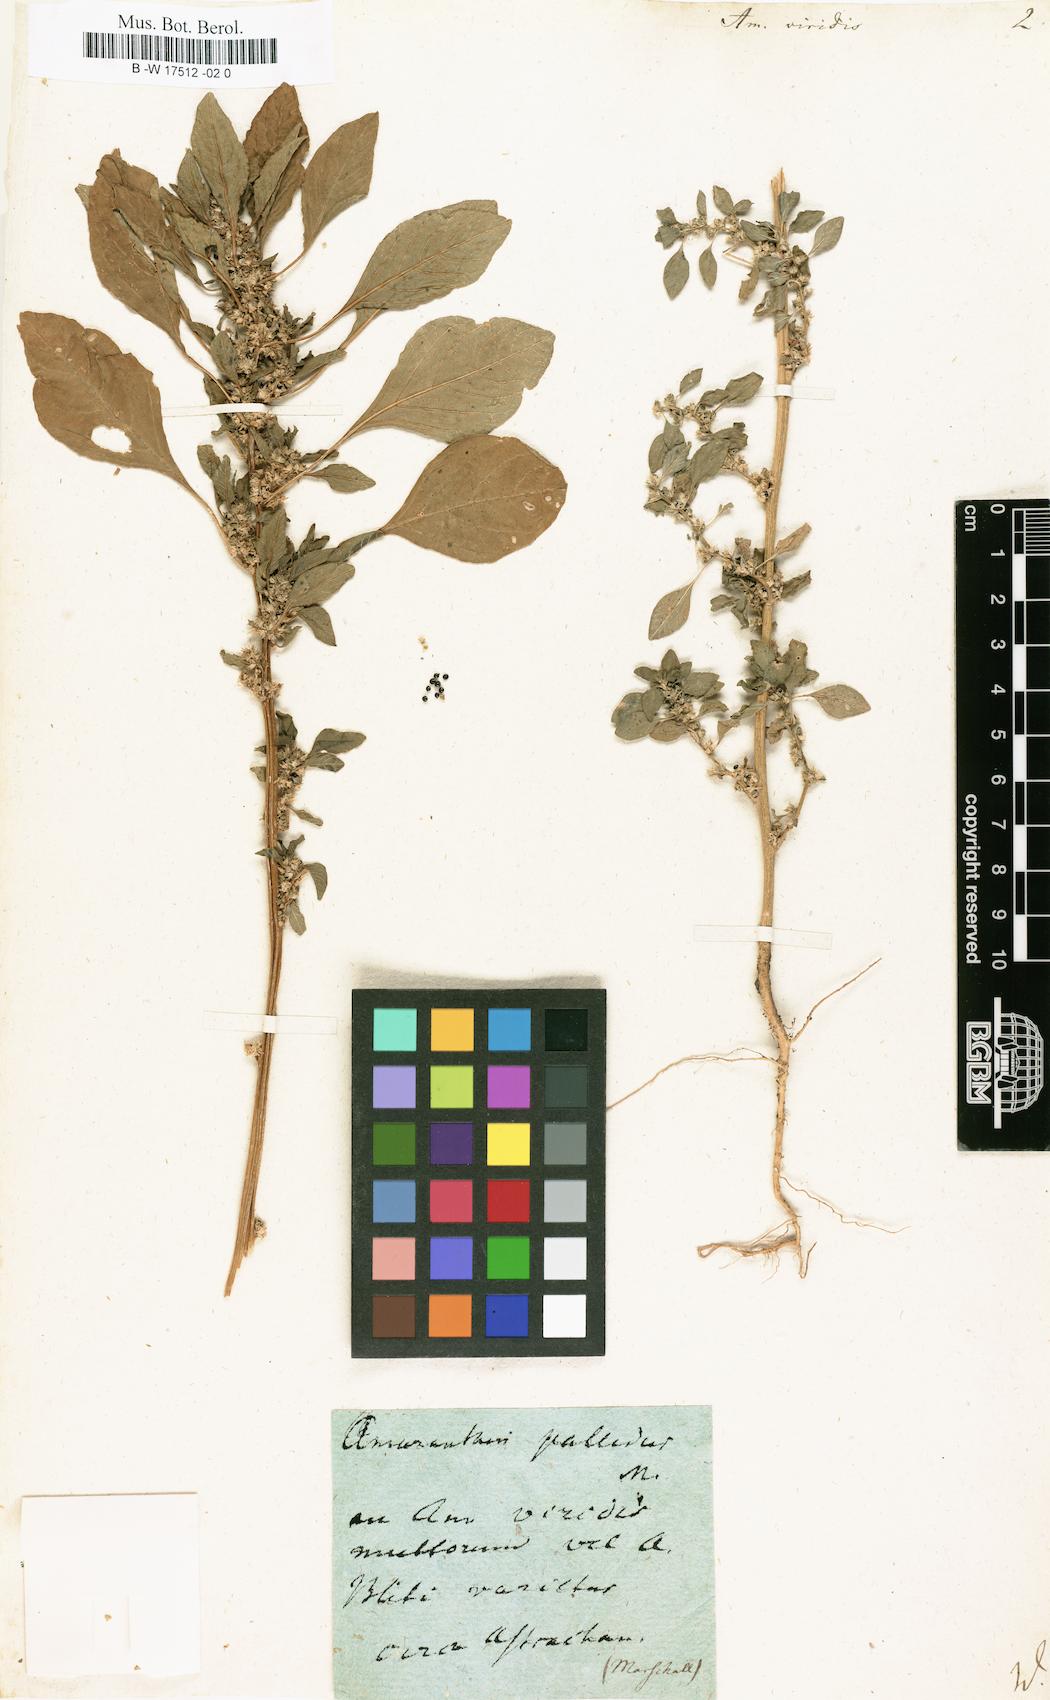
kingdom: Plantae
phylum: Tracheophyta
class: Magnoliopsida
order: Caryophyllales
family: Amaranthaceae
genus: Amaranthus
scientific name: Amaranthus viridis
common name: Slender amaranth
